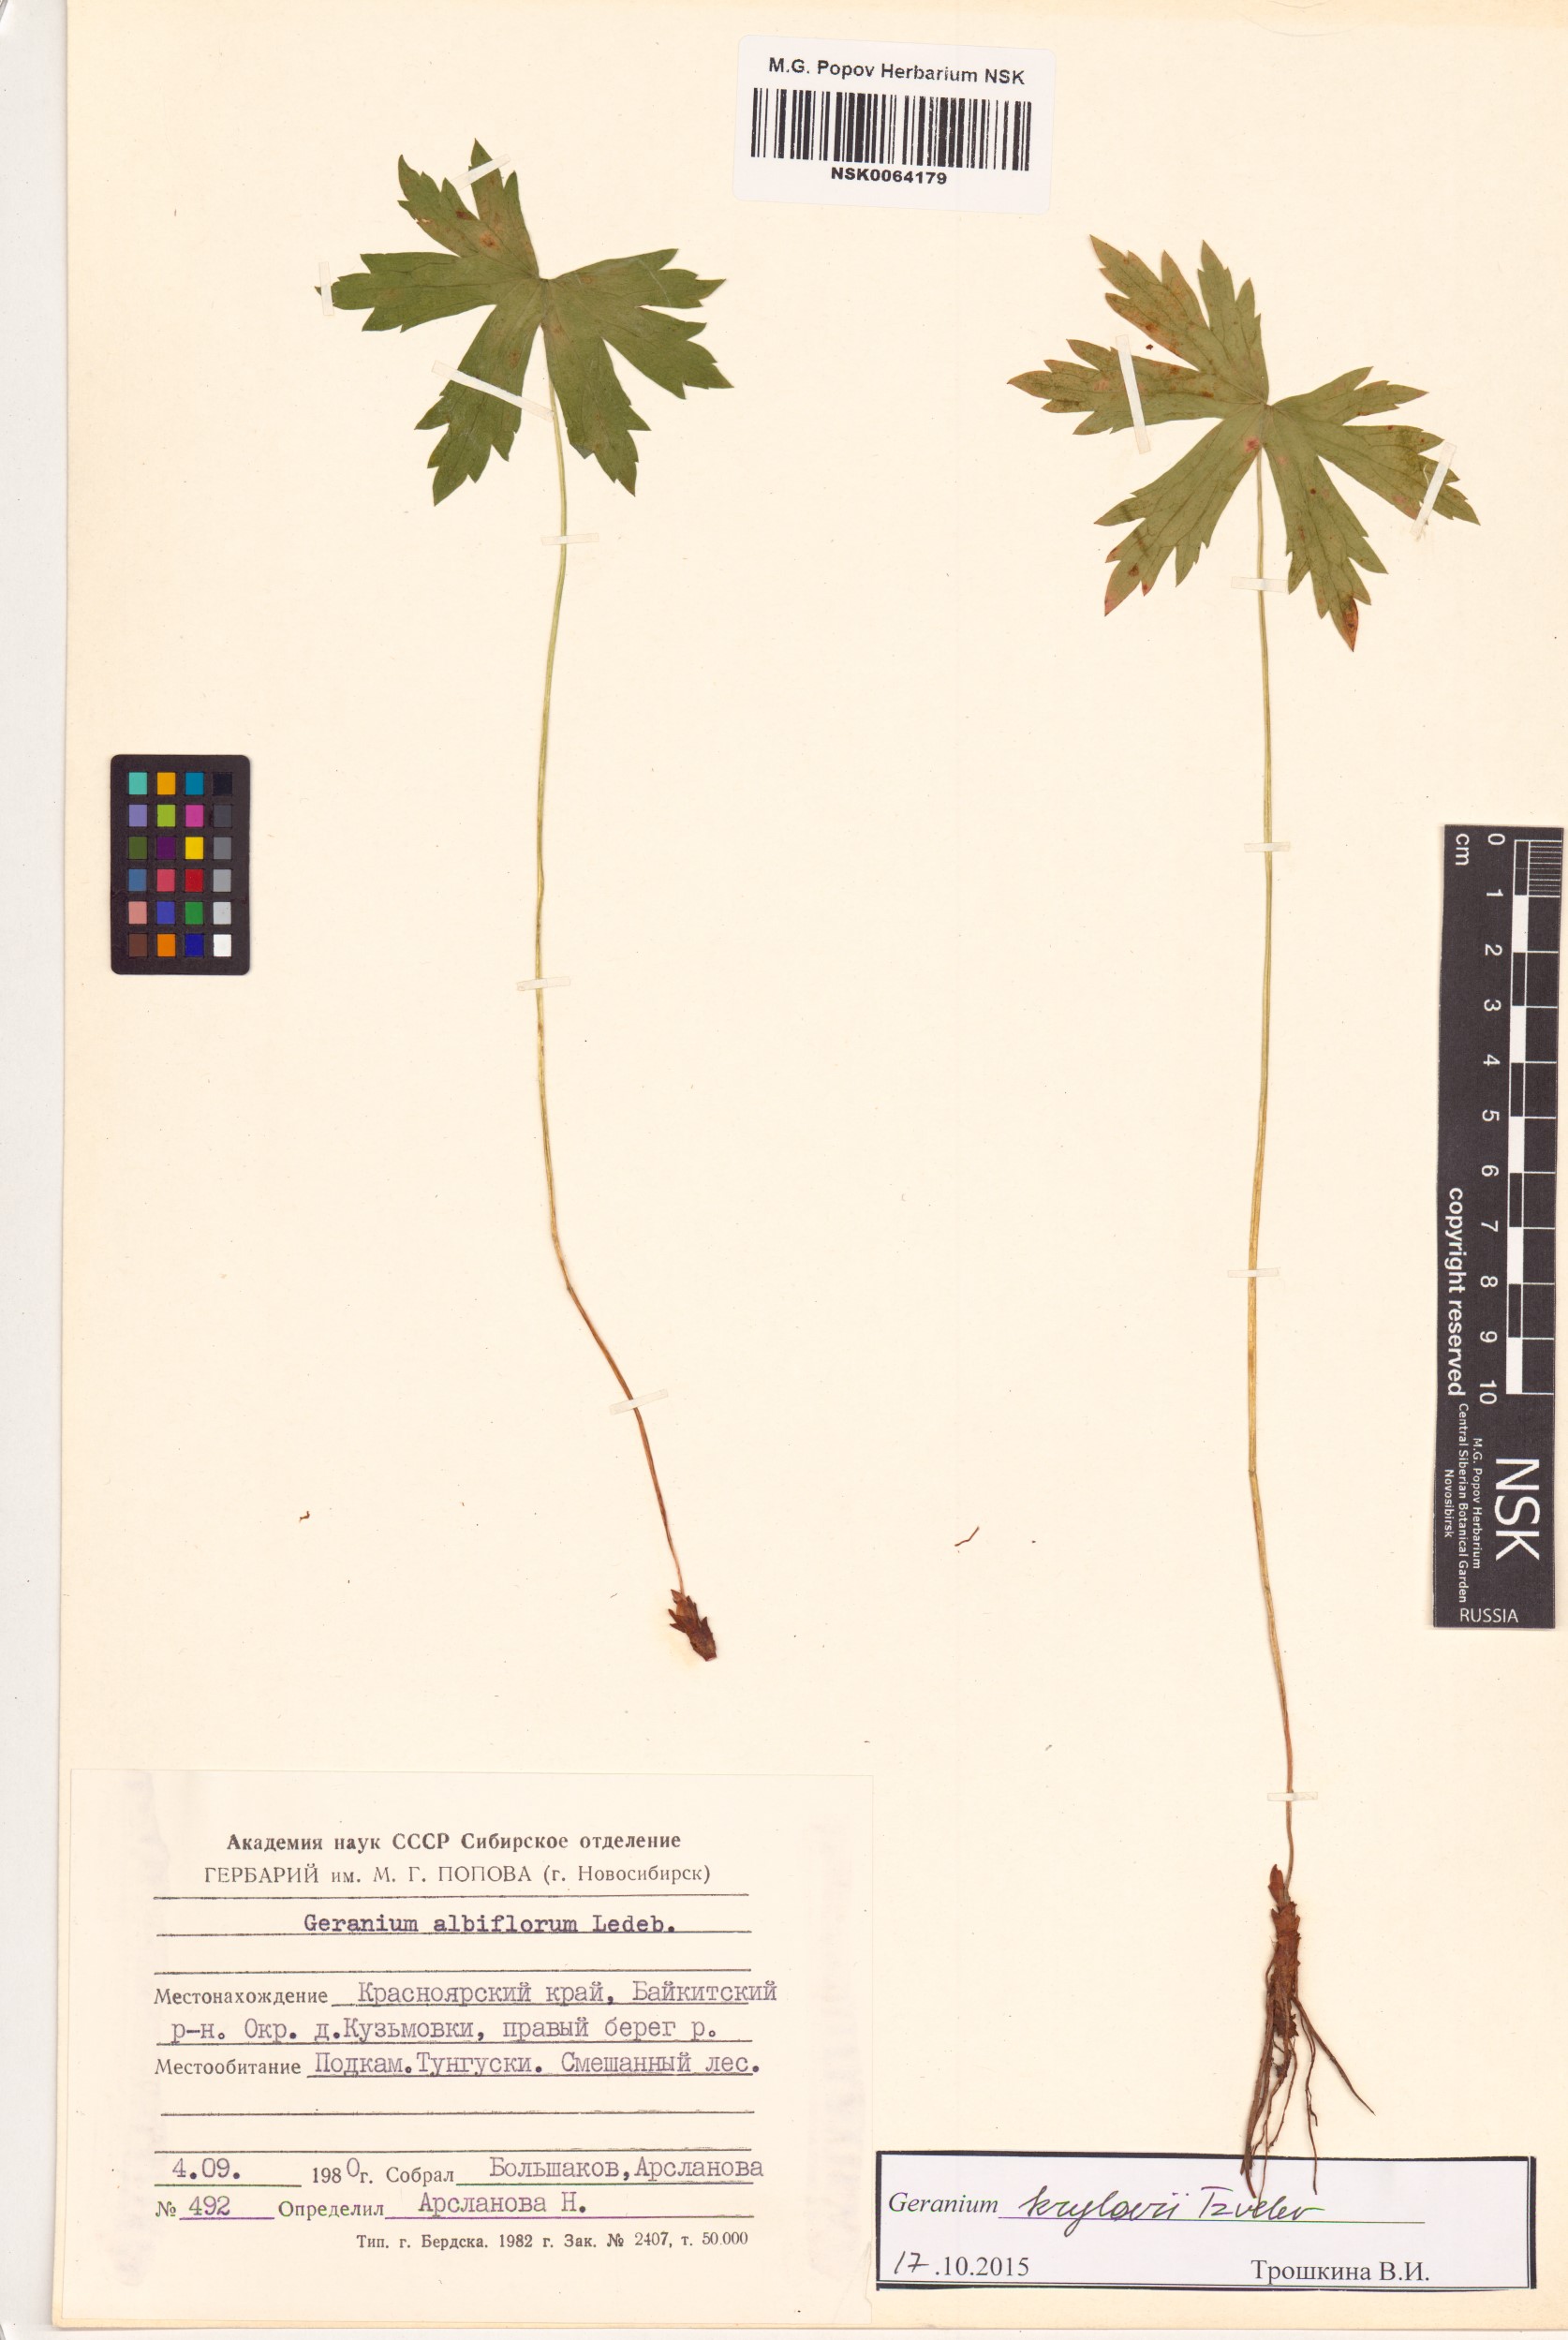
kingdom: Plantae
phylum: Tracheophyta
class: Magnoliopsida
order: Geraniales
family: Geraniaceae
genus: Geranium
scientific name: Geranium sylvaticum
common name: Wood crane's-bill
